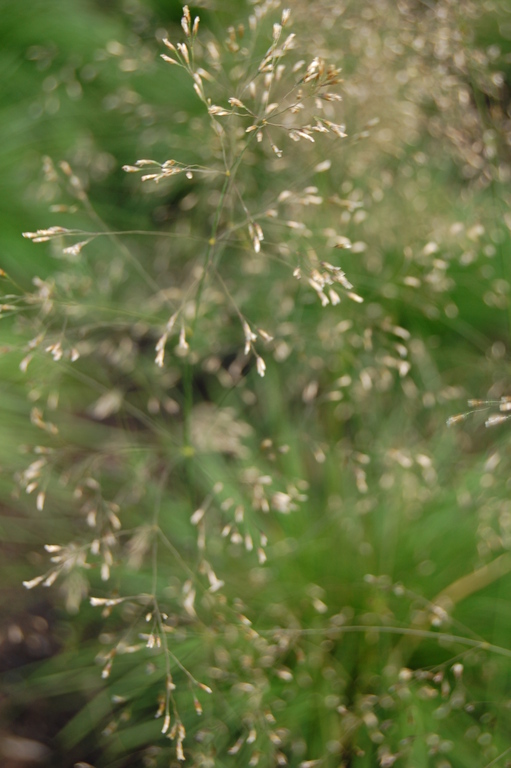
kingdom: Plantae
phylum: Tracheophyta
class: Liliopsida
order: Poales
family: Poaceae
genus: Deschampsia
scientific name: Deschampsia cespitosa
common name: Tufted hair-grass
